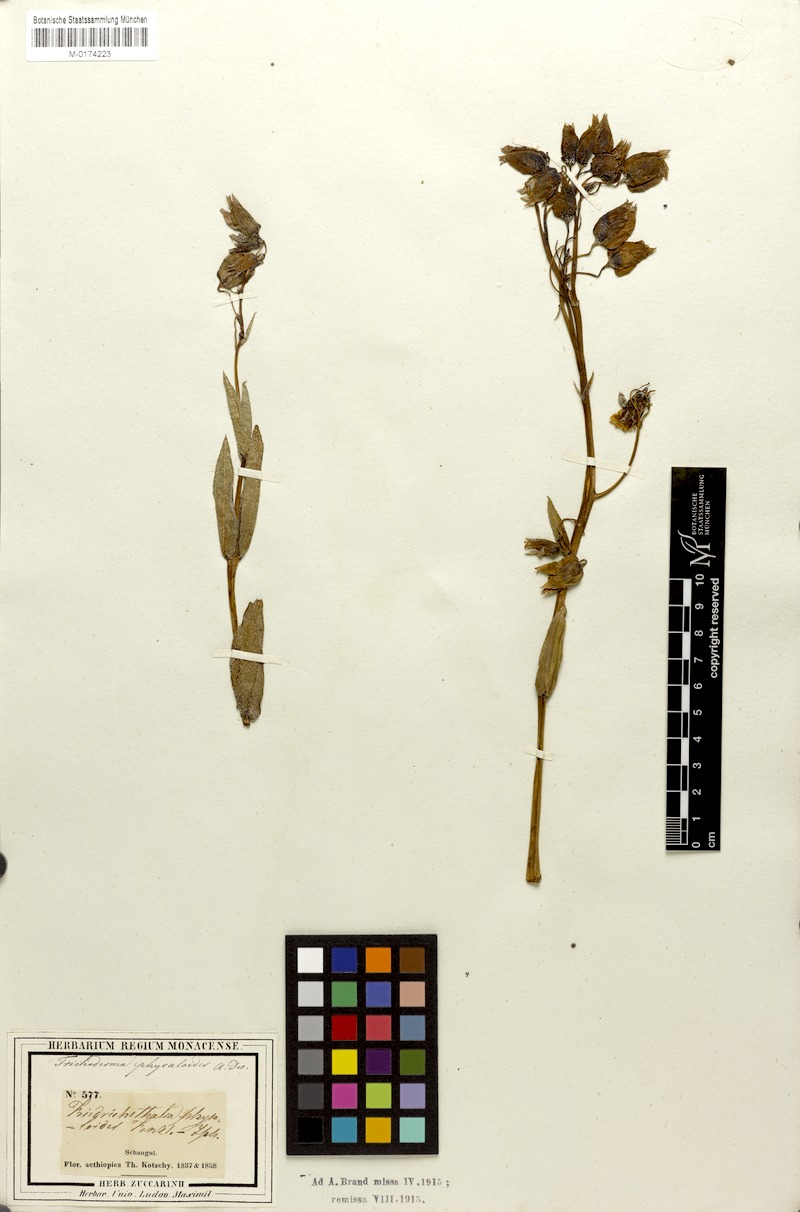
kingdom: Plantae
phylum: Tracheophyta
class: Magnoliopsida
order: Boraginales
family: Boraginaceae
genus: Trichodesma
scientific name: Trichodesma physaloides
